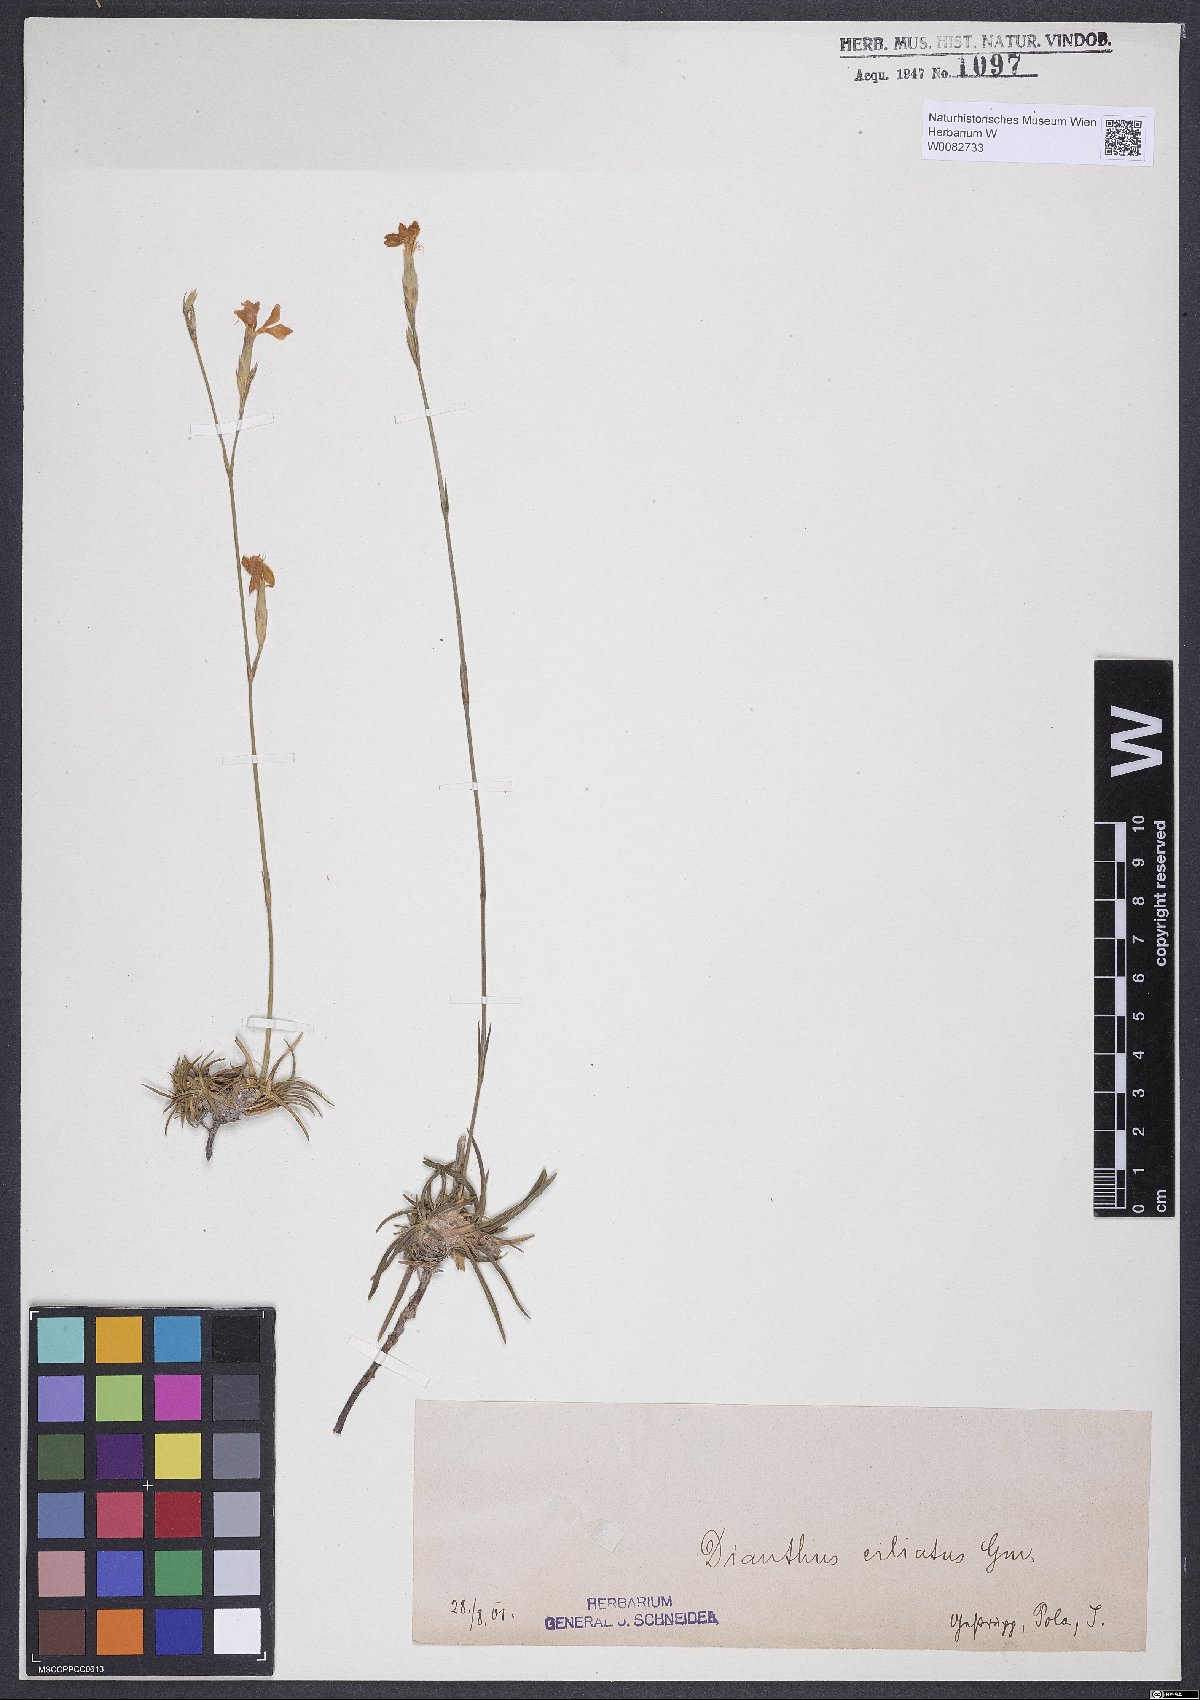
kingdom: Plantae
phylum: Tracheophyta
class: Magnoliopsida
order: Caryophyllales
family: Caryophyllaceae
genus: Dianthus
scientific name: Dianthus ciliatus
